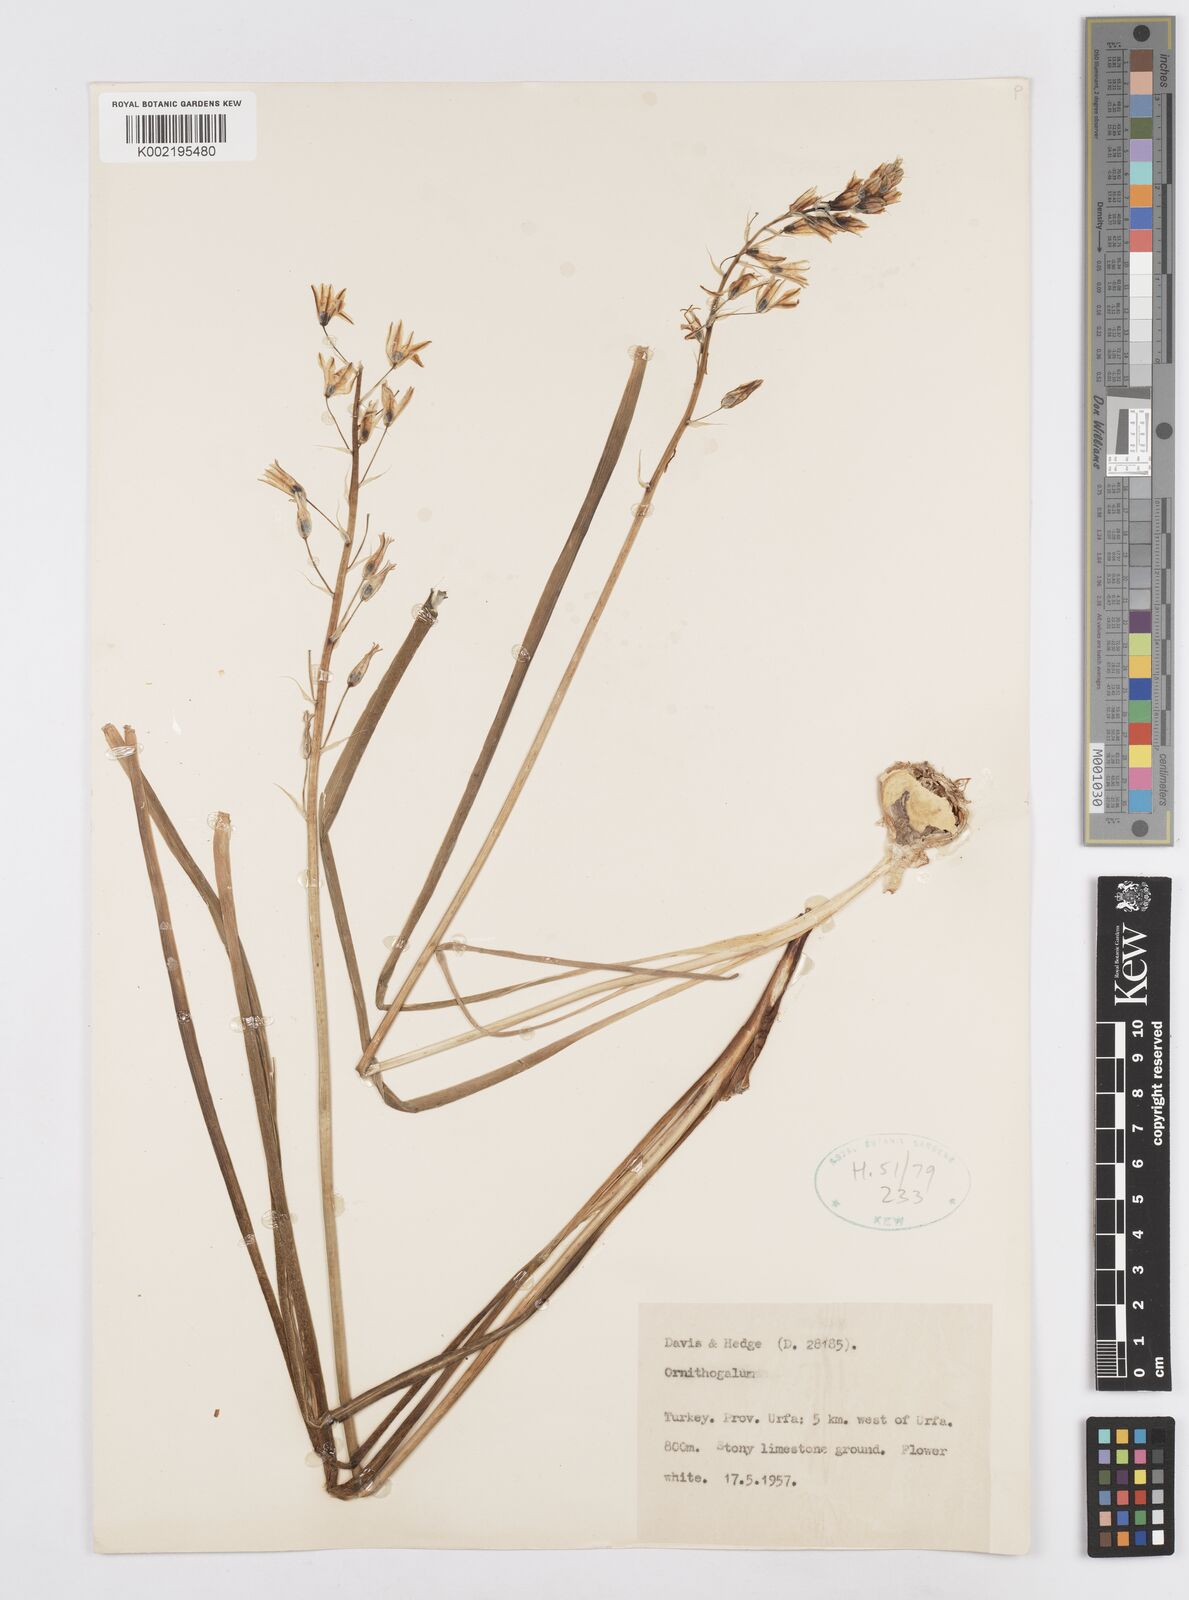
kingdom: Plantae
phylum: Tracheophyta
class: Liliopsida
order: Asparagales
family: Asparagaceae
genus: Ornithogalum
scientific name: Ornithogalum
